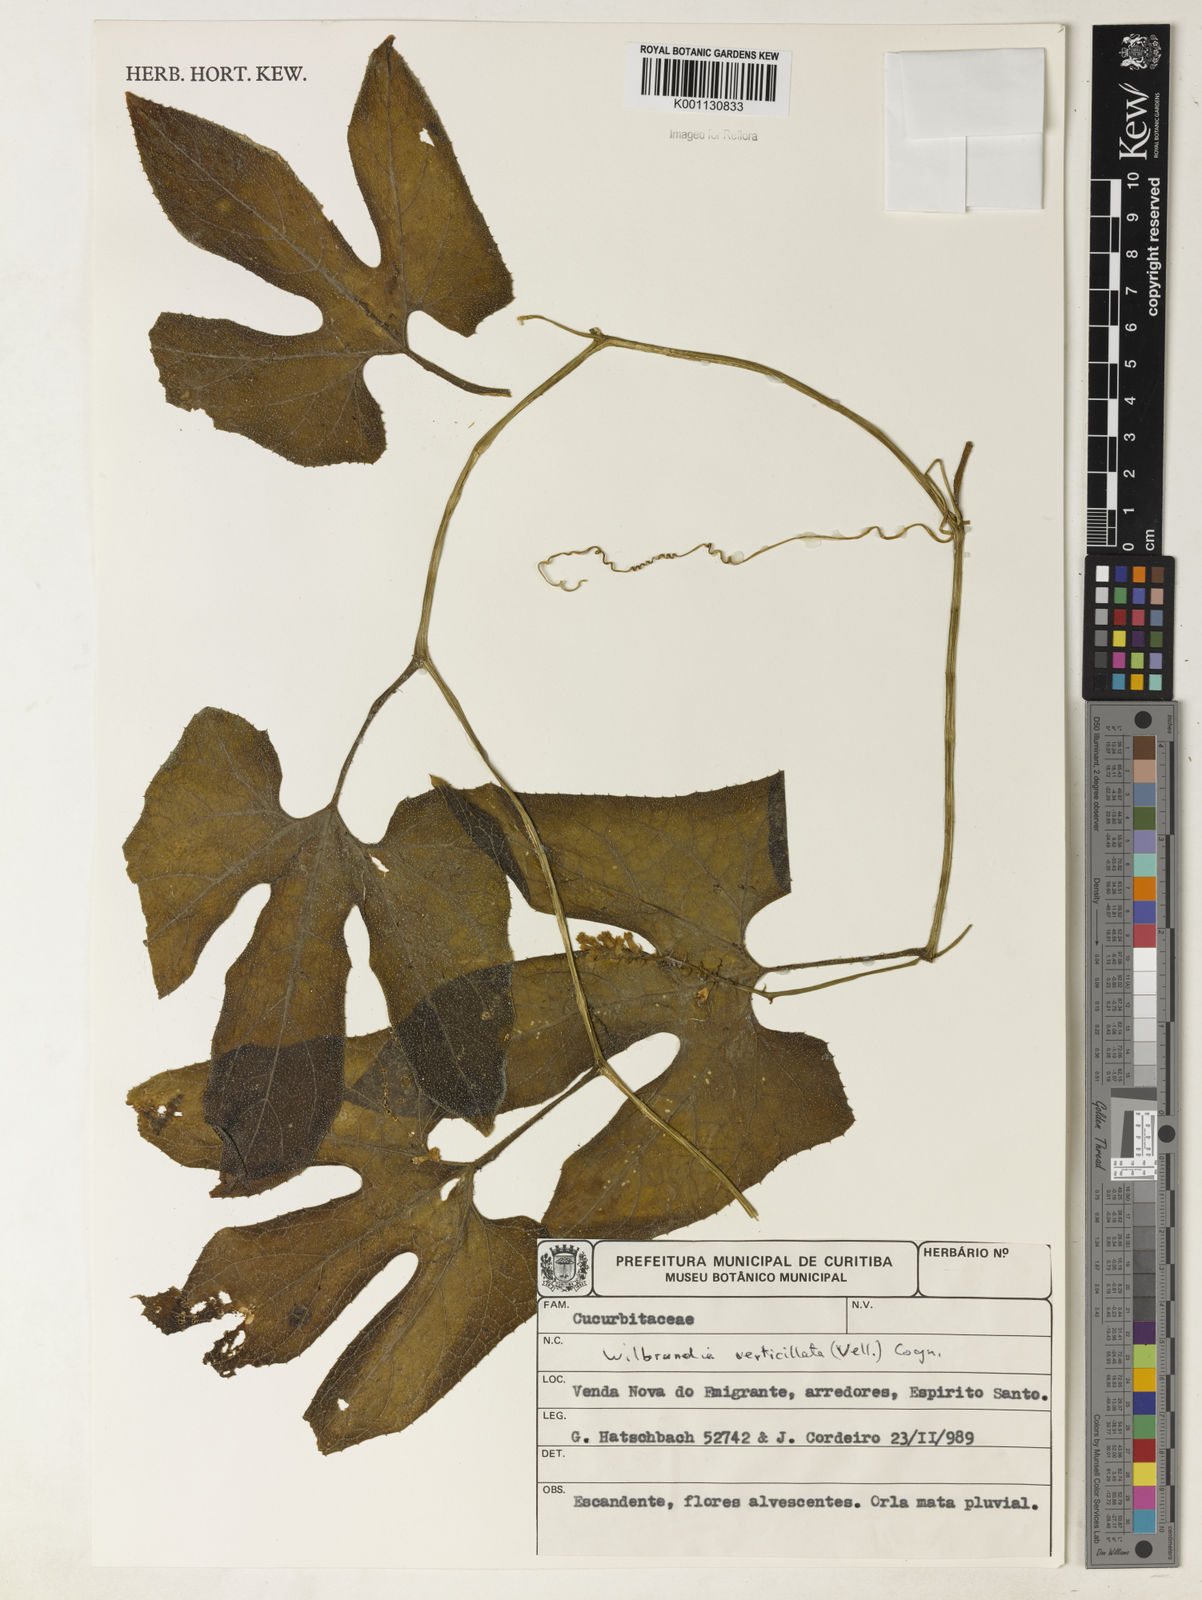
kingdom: Plantae
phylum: Tracheophyta
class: Magnoliopsida
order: Cucurbitales
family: Cucurbitaceae
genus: Wilbrandia
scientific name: Wilbrandia verticillata
